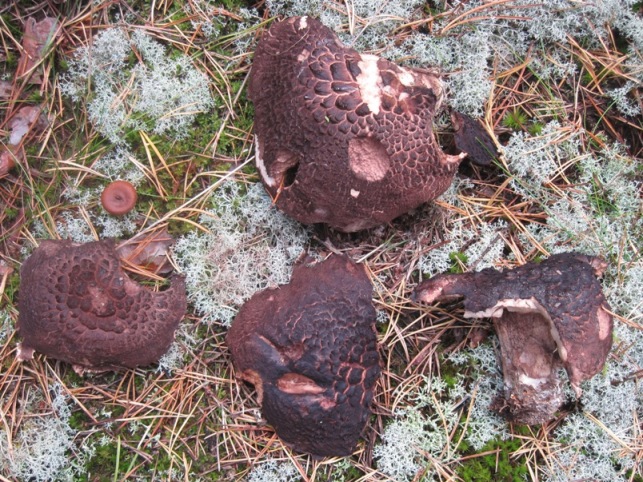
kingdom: Fungi
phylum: Basidiomycota
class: Agaricomycetes
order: Thelephorales
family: Bankeraceae
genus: Sarcodon
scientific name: Sarcodon squamosus
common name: småskællet kødpigsvamp
